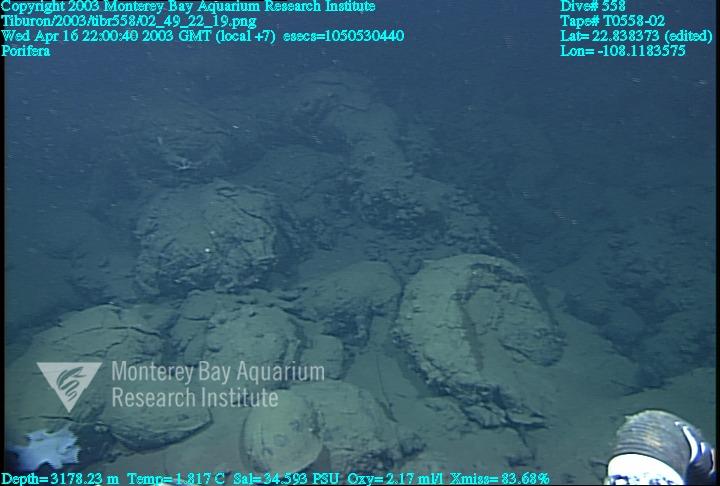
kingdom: Animalia
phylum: Porifera
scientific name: Porifera
